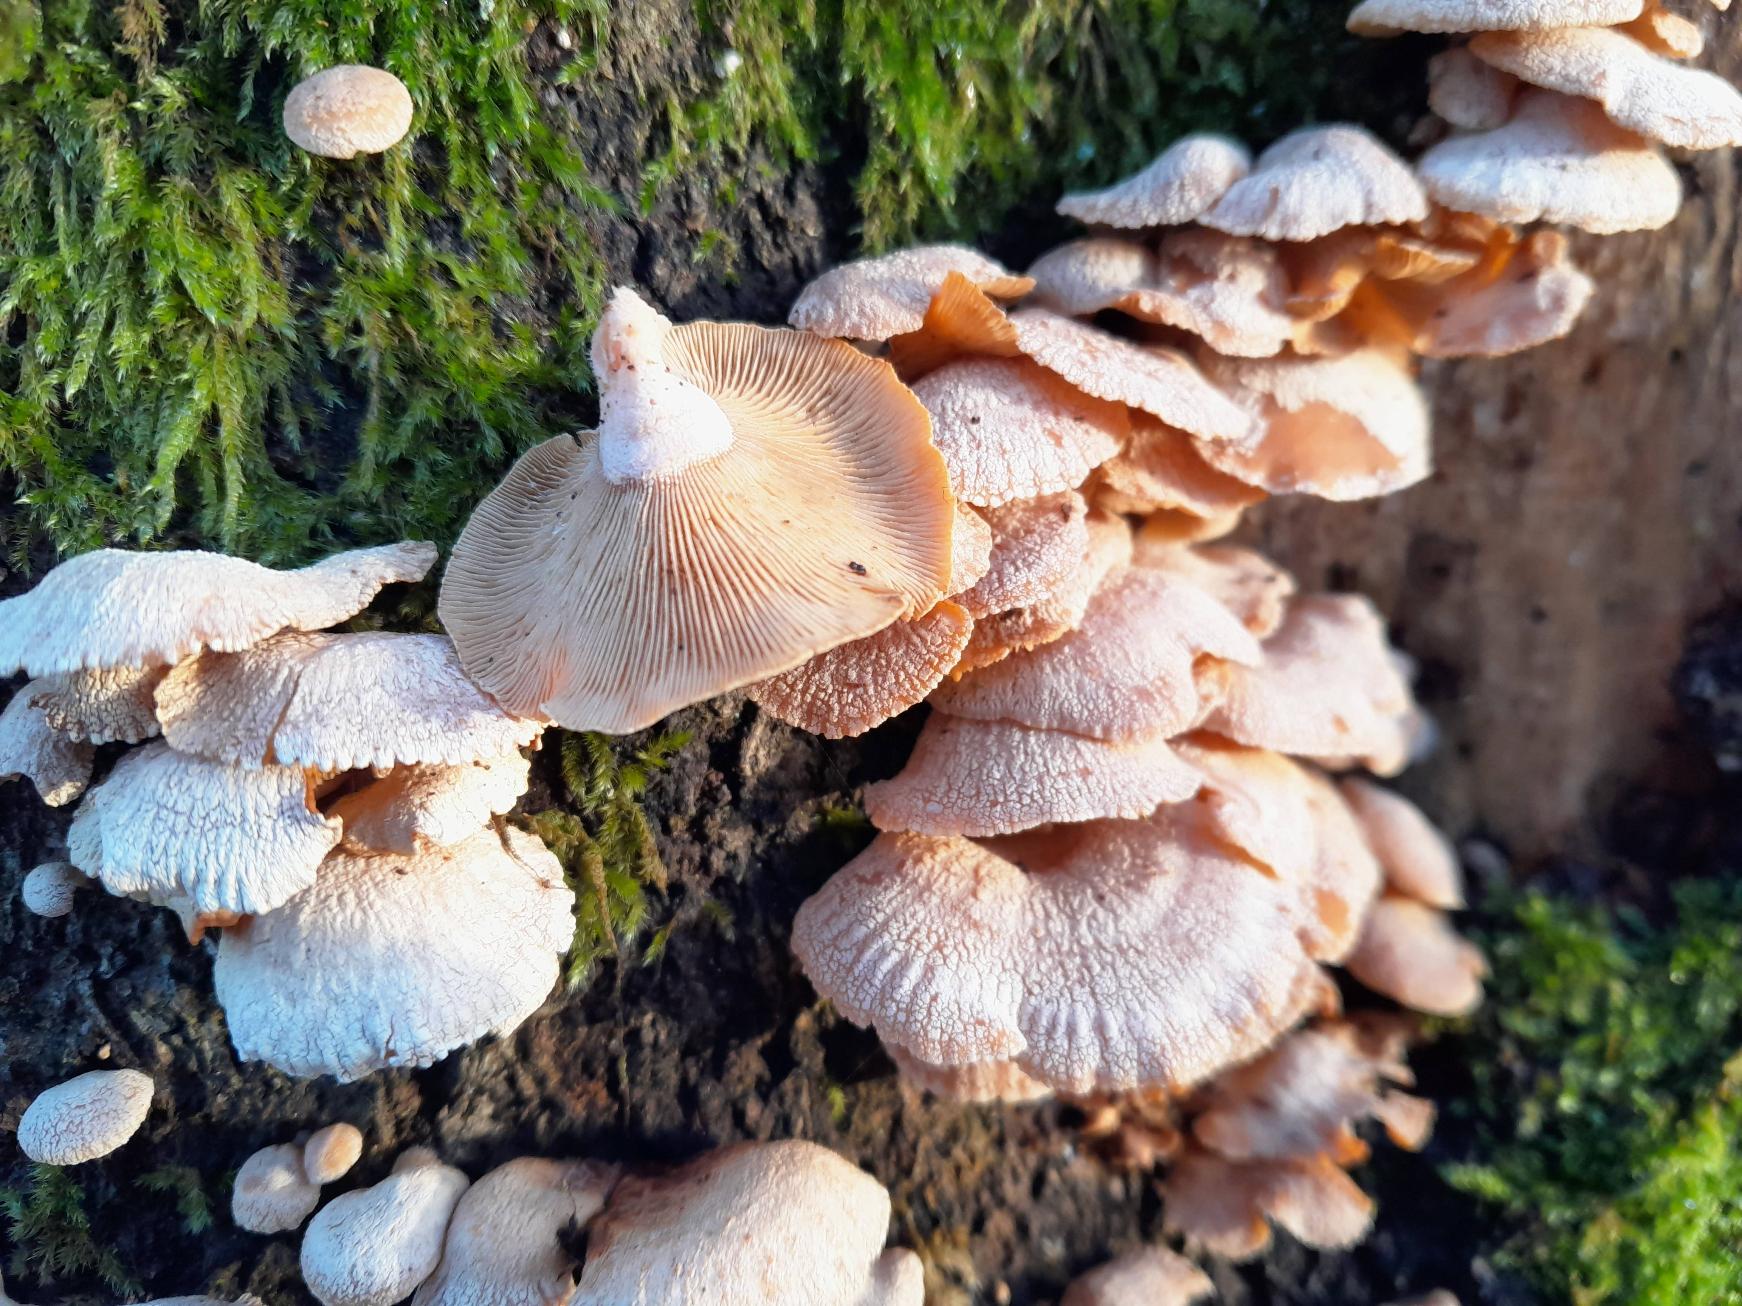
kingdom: Fungi
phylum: Basidiomycota
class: Agaricomycetes
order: Agaricales
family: Mycenaceae
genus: Panellus
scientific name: Panellus stipticus
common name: Kliddet epaulethat
